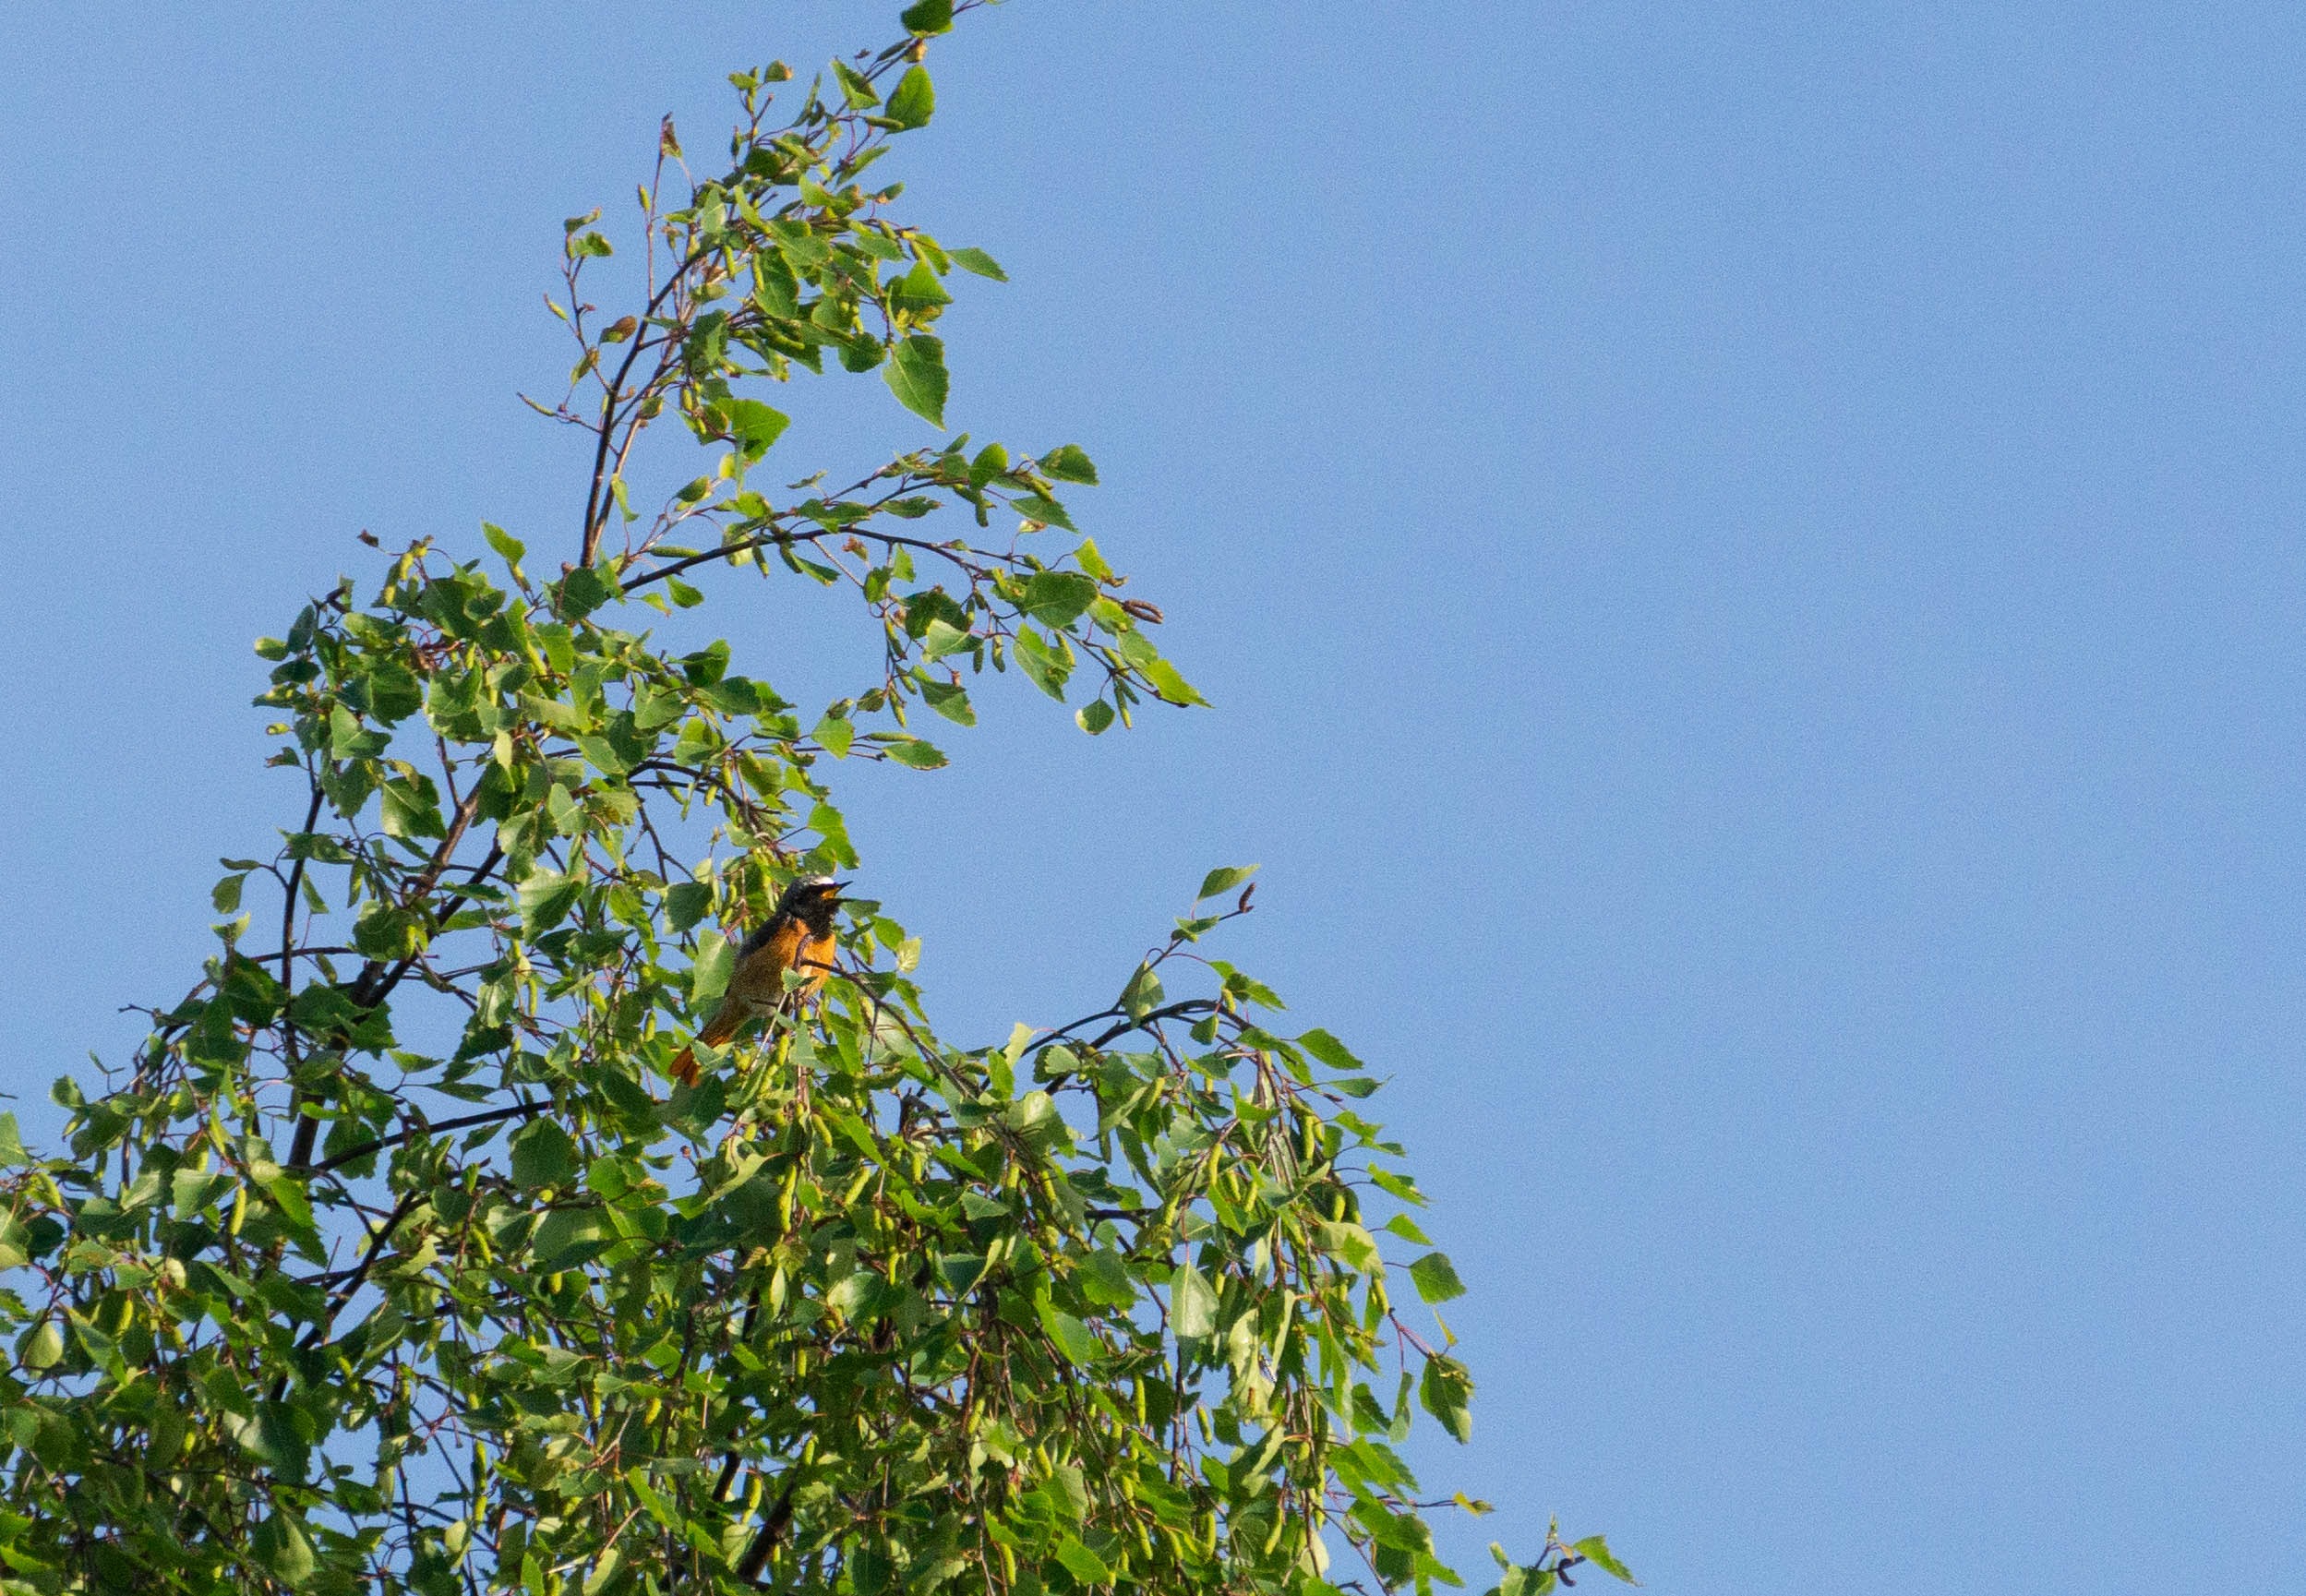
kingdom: Animalia
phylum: Chordata
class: Aves
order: Passeriformes
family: Muscicapidae
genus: Phoenicurus
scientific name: Phoenicurus phoenicurus
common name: Rødstjert
